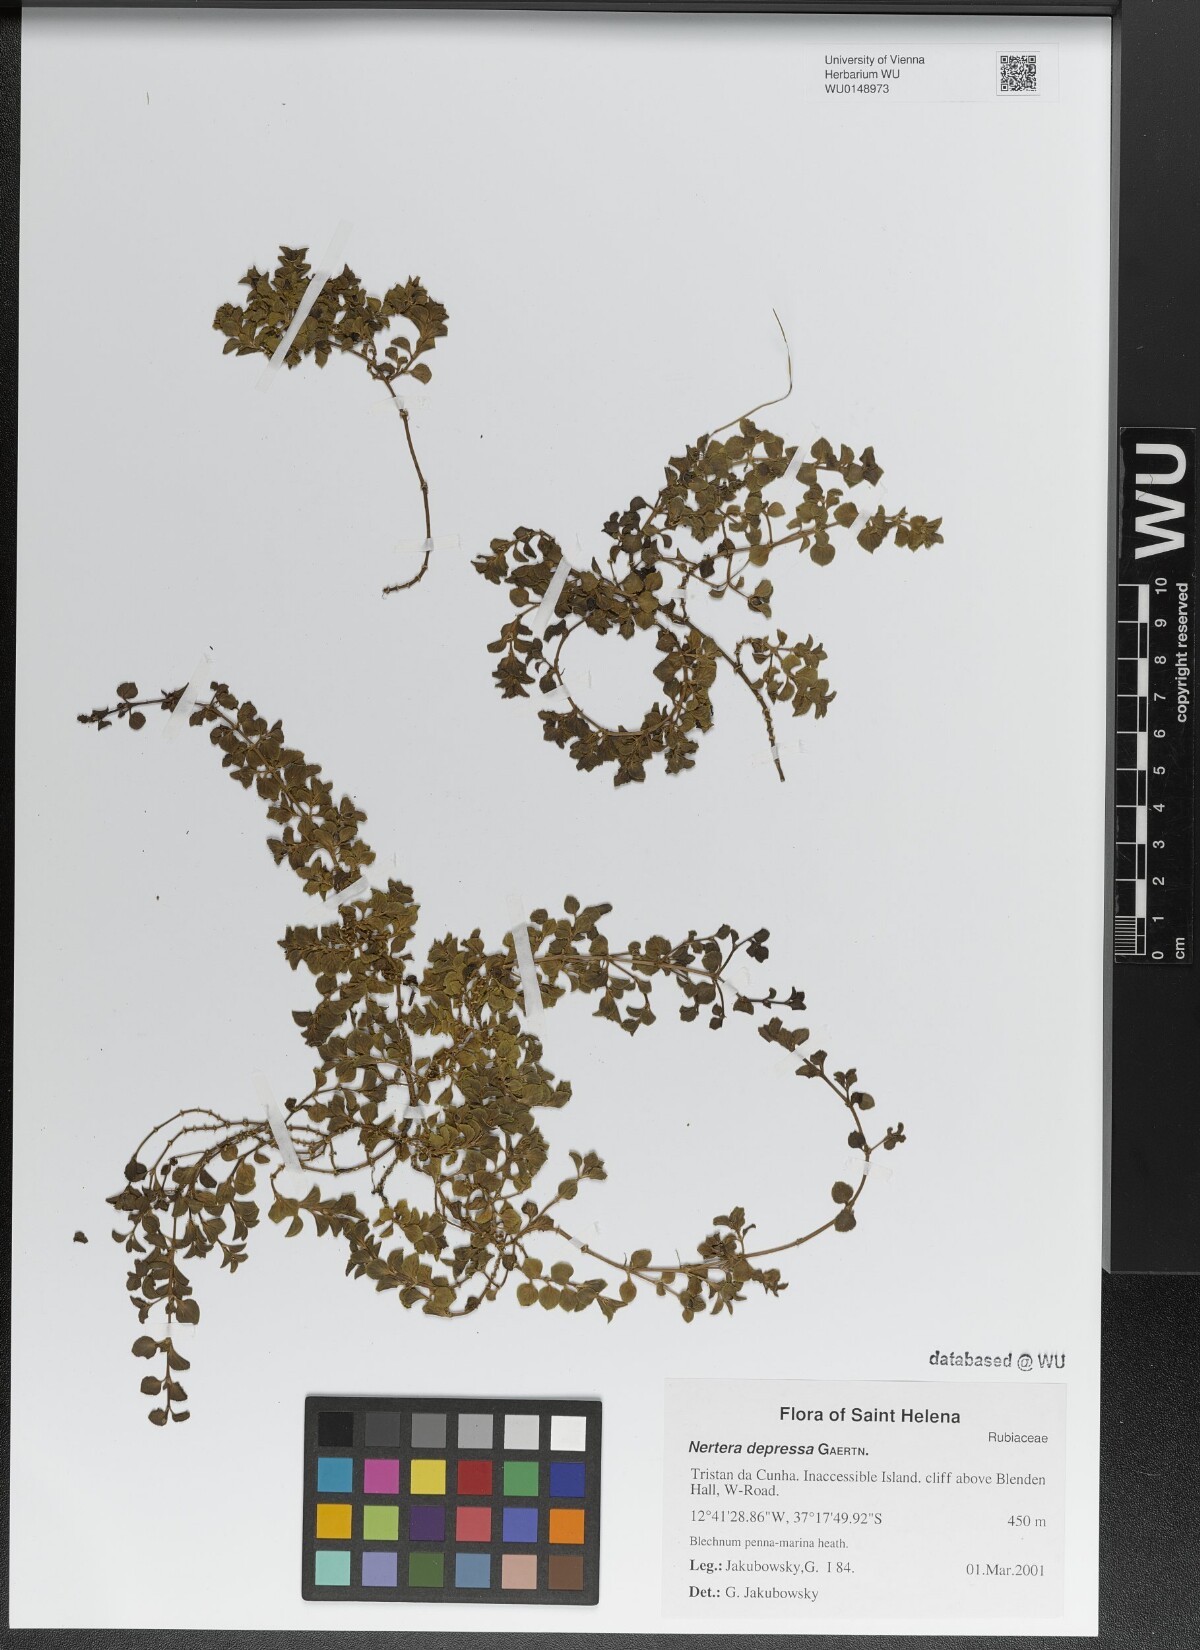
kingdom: Plantae
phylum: Tracheophyta
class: Magnoliopsida
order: Gentianales
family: Rubiaceae
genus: Nertera
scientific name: Nertera granadensis
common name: Beadplant
